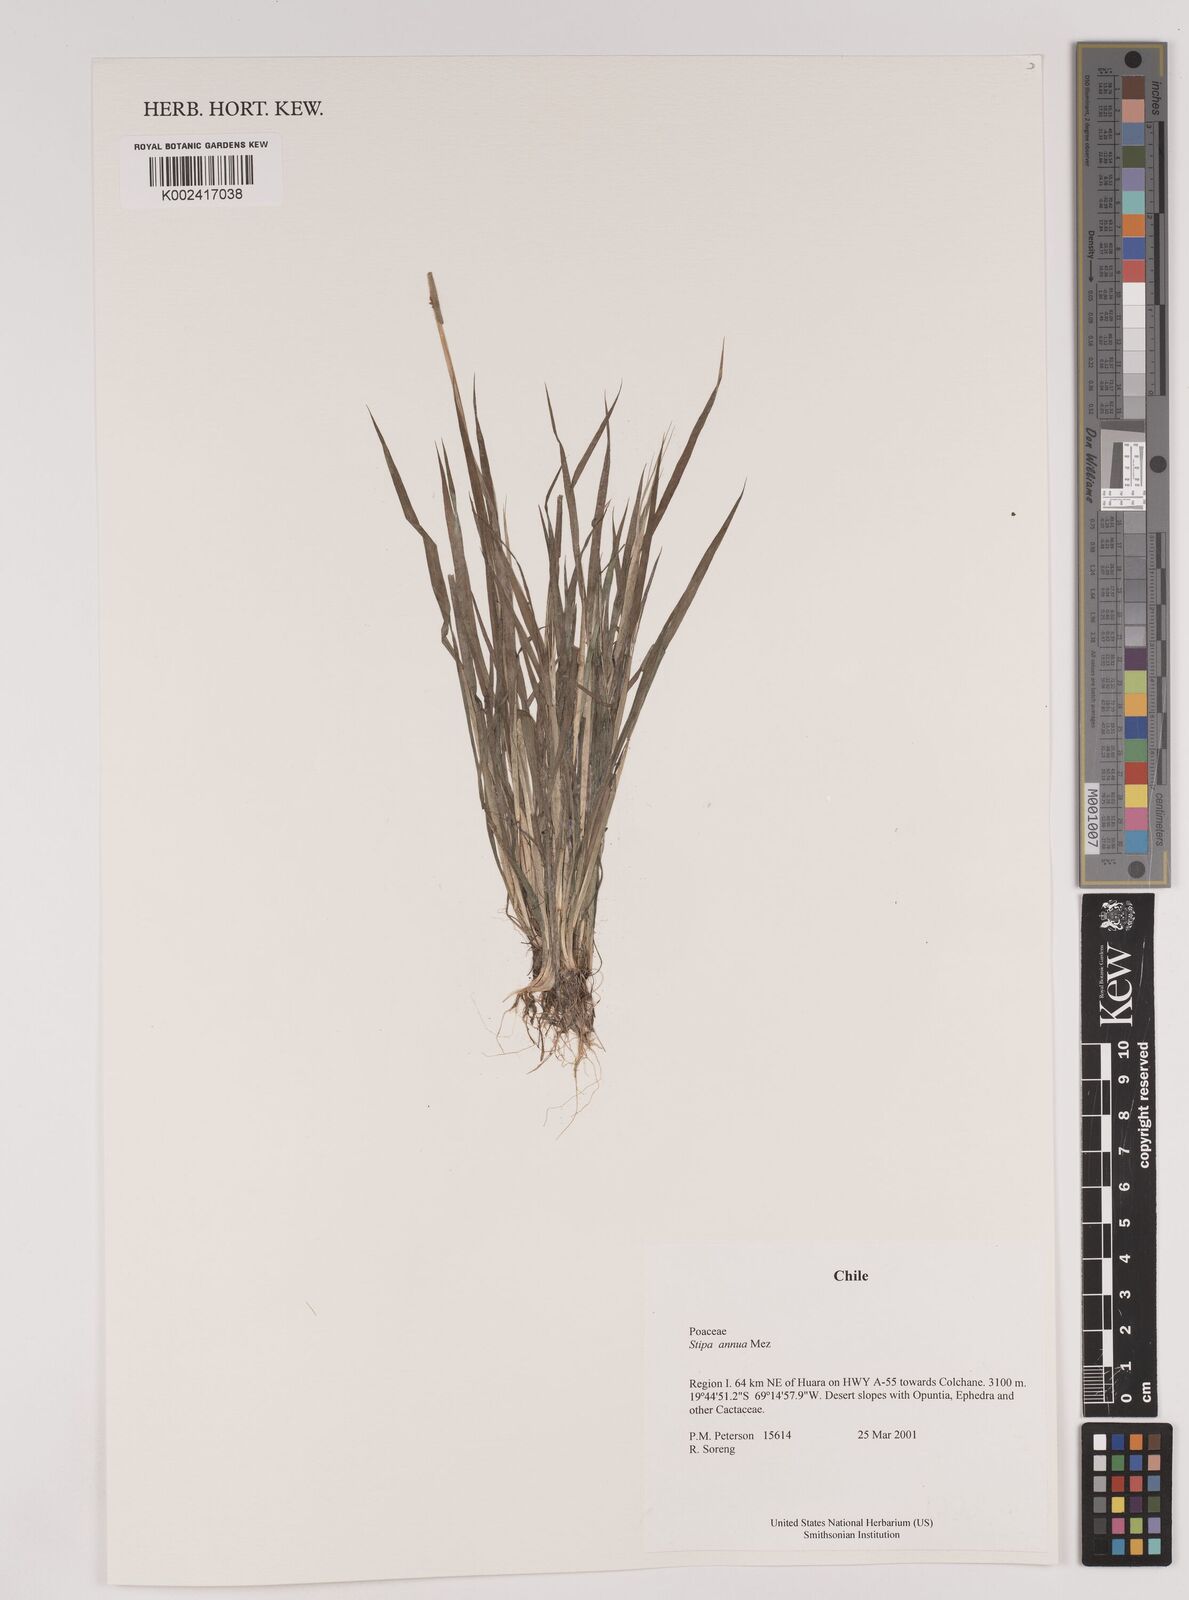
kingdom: Plantae
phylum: Tracheophyta
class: Liliopsida
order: Poales
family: Poaceae
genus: Stipa
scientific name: Stipa annua
